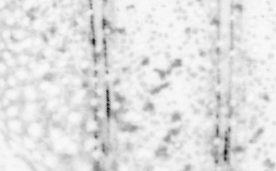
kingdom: Animalia
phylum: Chordata
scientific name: Chordata
